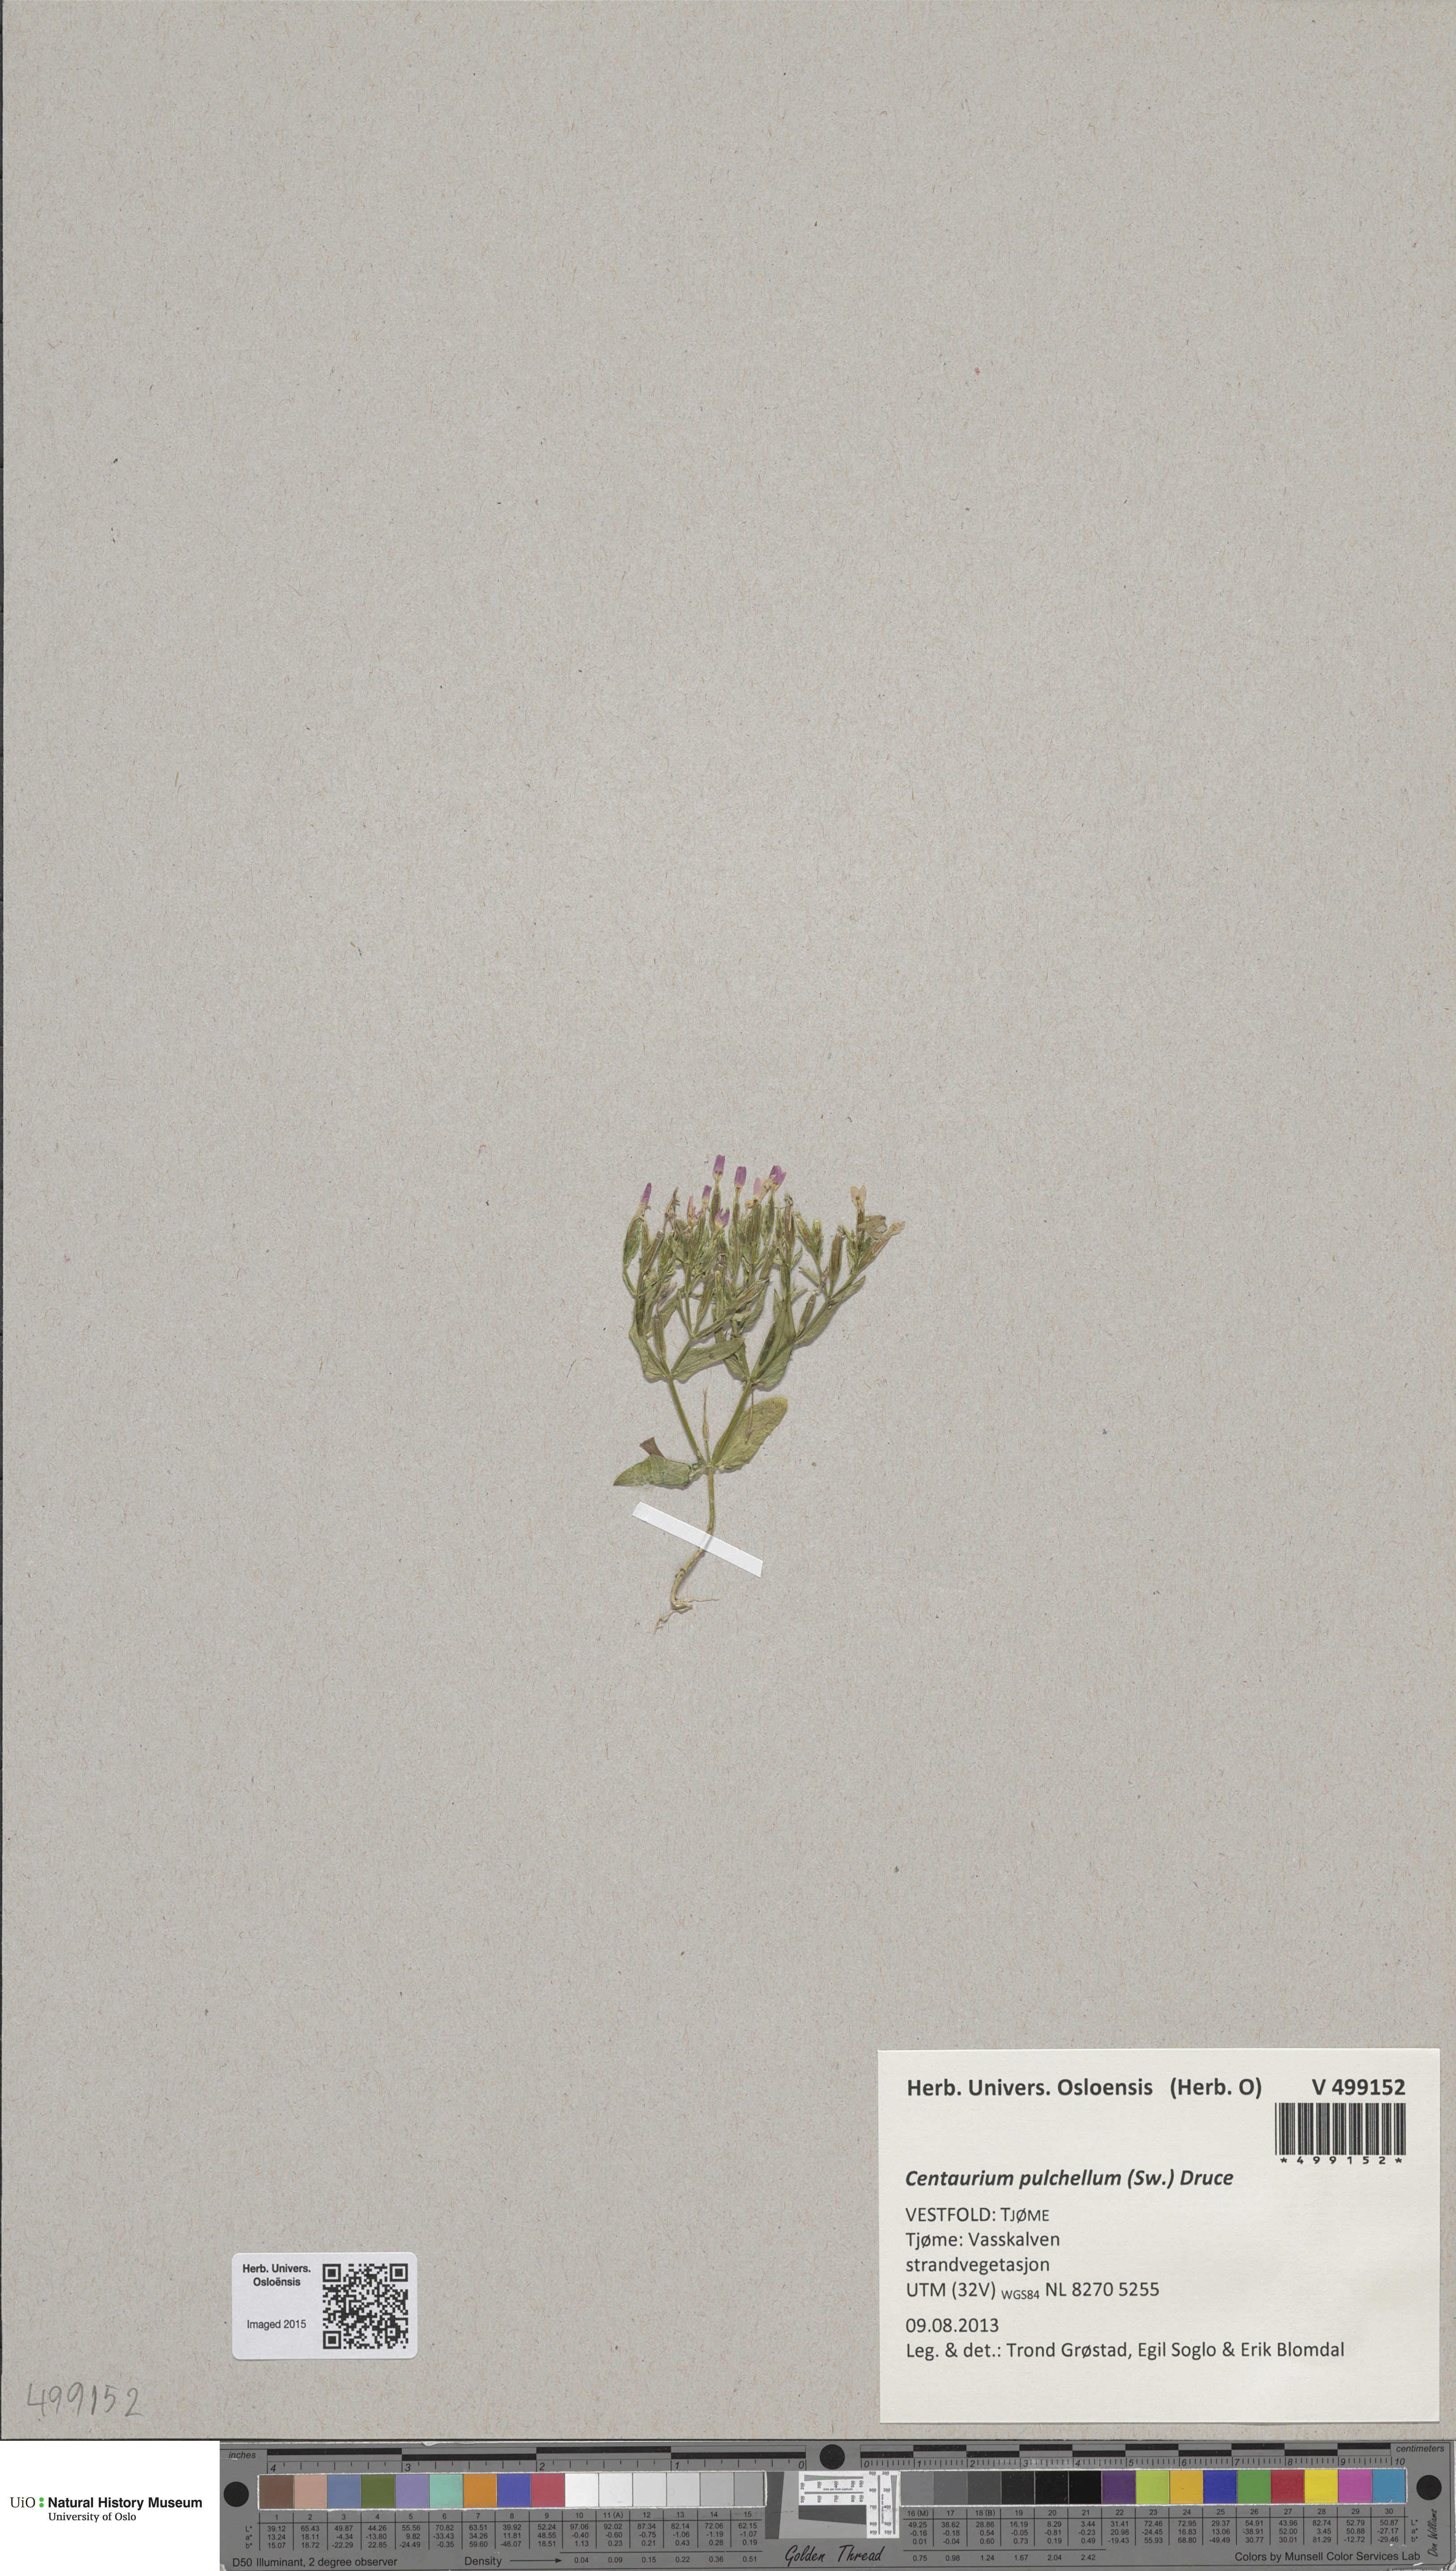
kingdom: Plantae
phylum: Tracheophyta
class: Magnoliopsida
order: Gentianales
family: Gentianaceae
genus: Centaurium
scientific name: Centaurium pulchellum
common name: Lesser centaury
